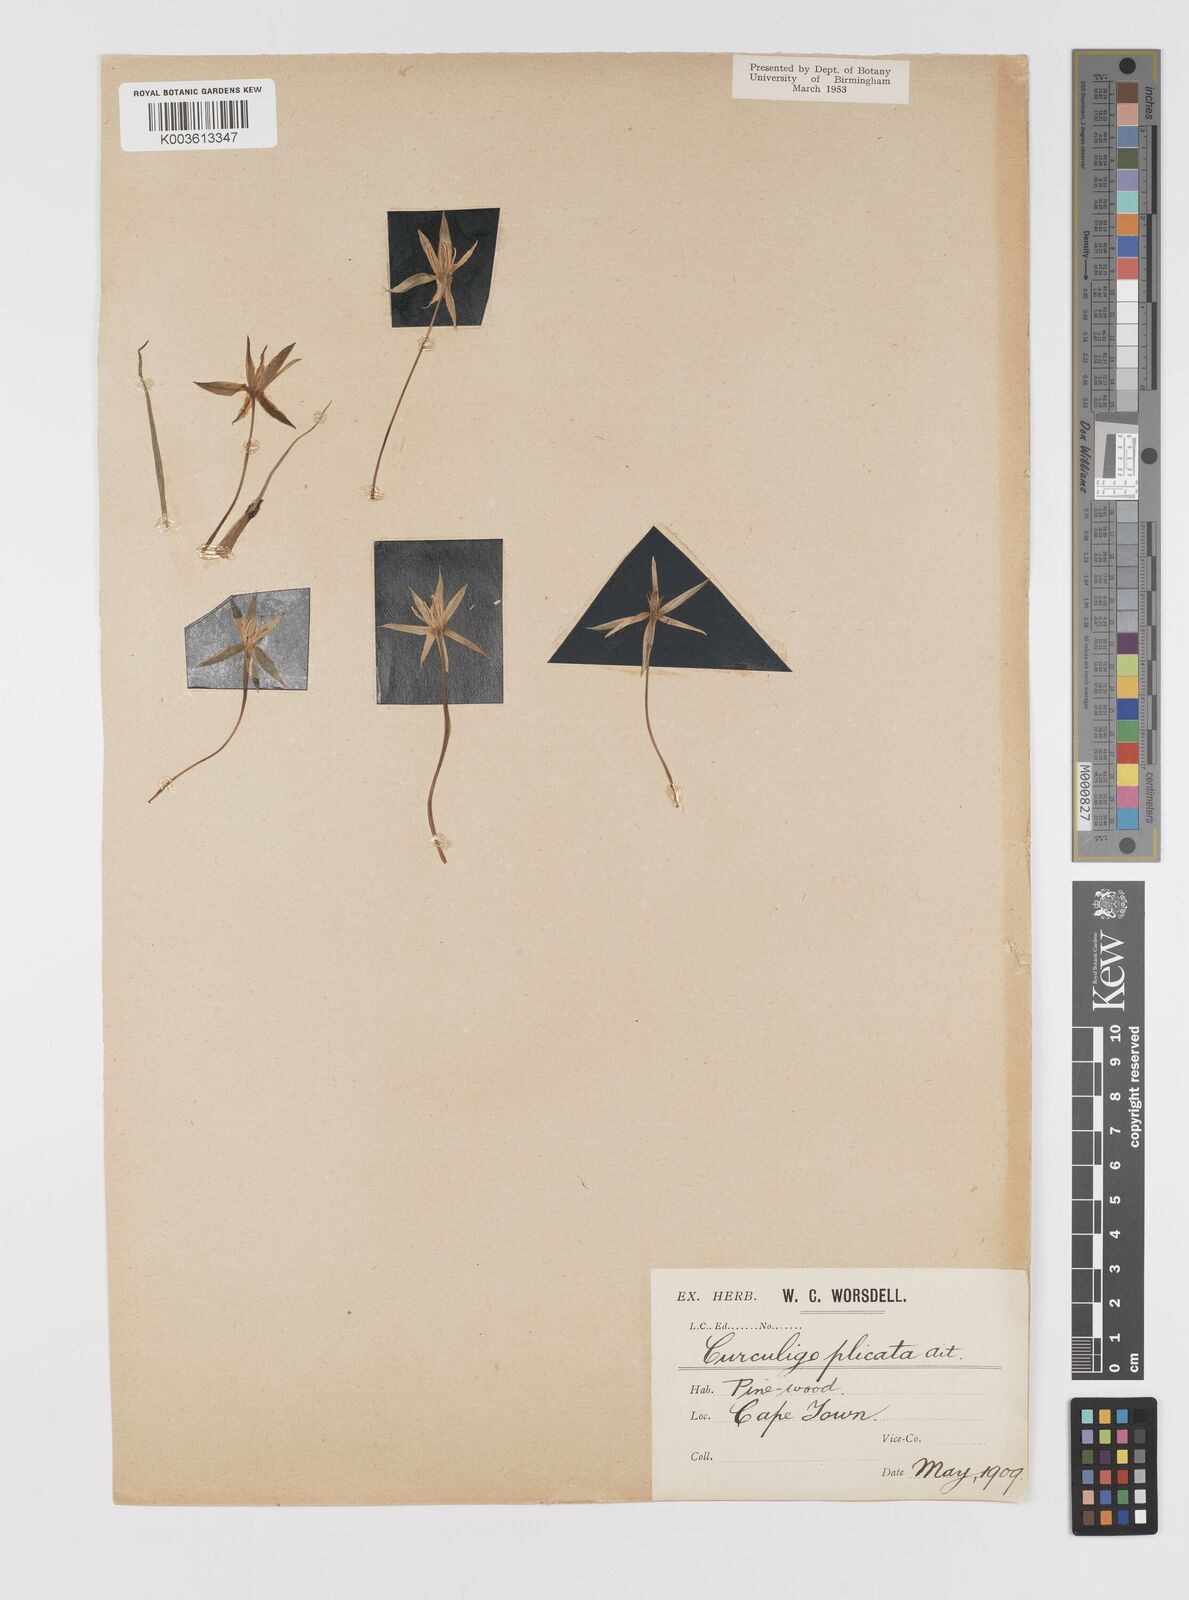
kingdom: Plantae
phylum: Tracheophyta
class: Liliopsida
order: Asparagales
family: Hypoxidaceae
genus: Empodium
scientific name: Empodium plicatum
